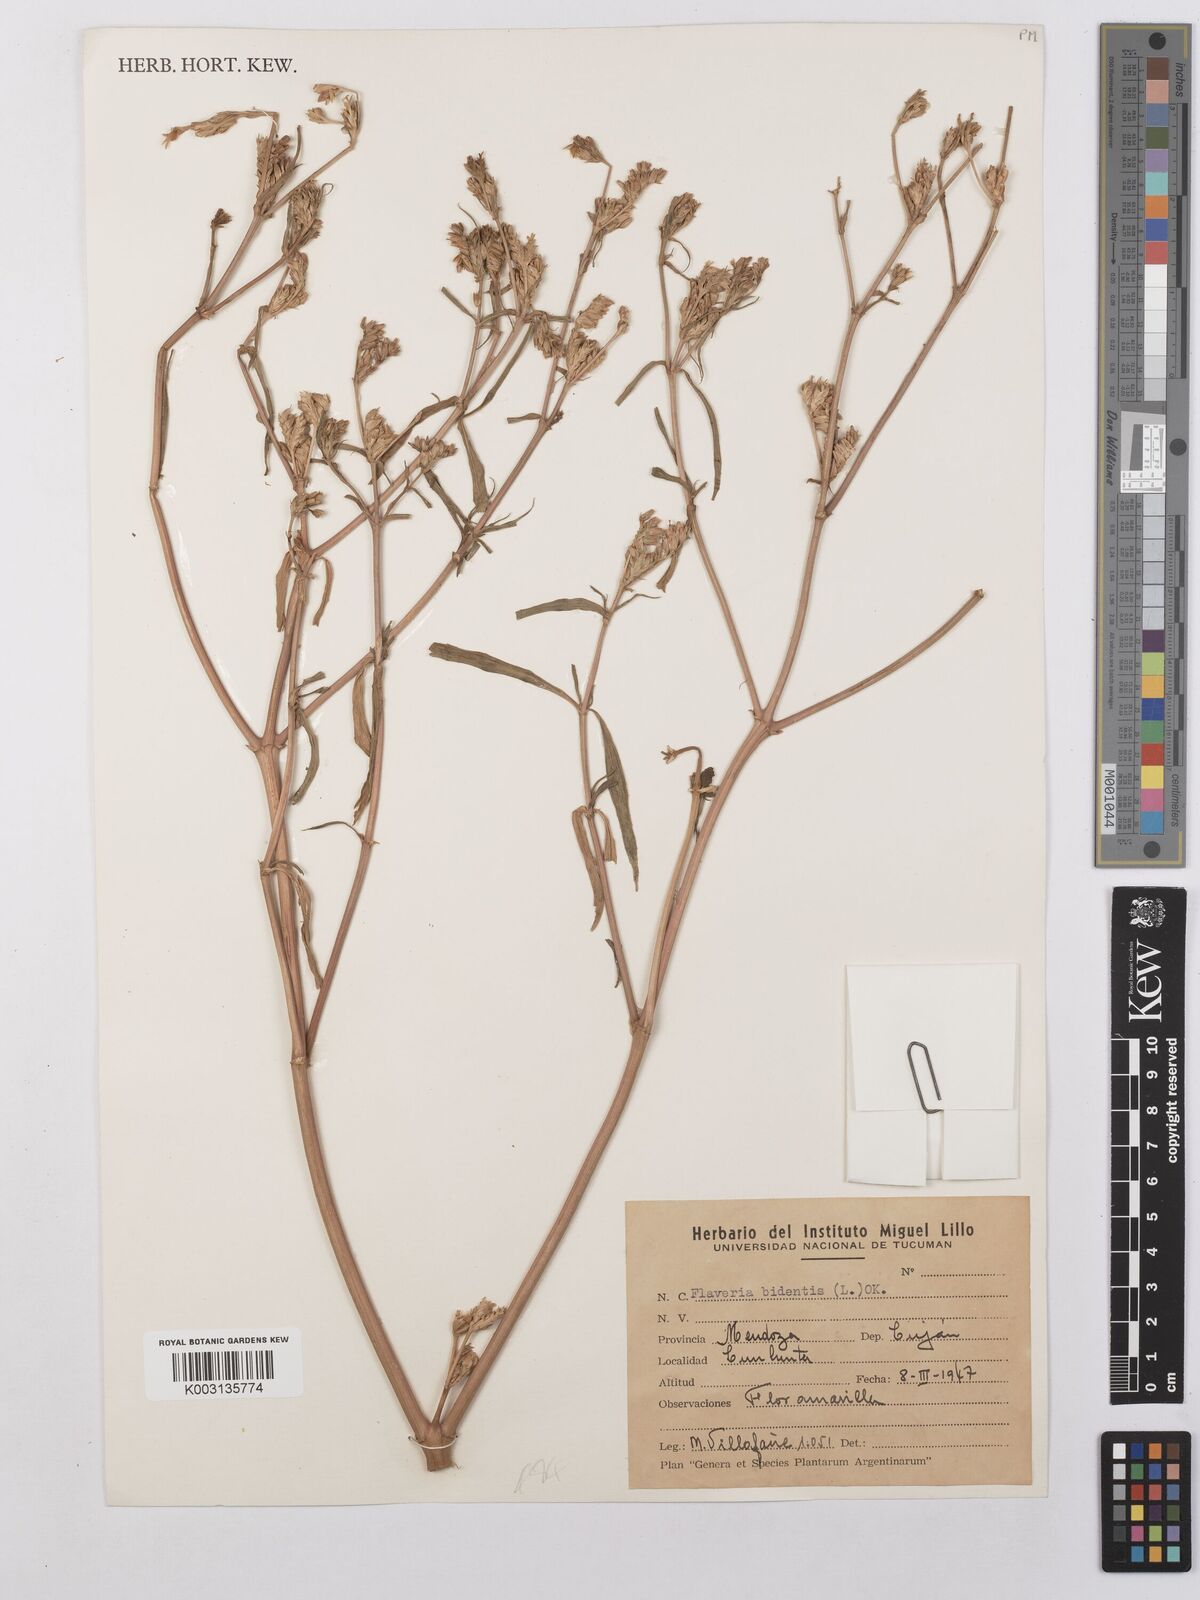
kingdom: Plantae
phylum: Tracheophyta
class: Magnoliopsida
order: Asterales
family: Asteraceae
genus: Flaveria
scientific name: Flaveria bidentis
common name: Coastal plain yellowtops
